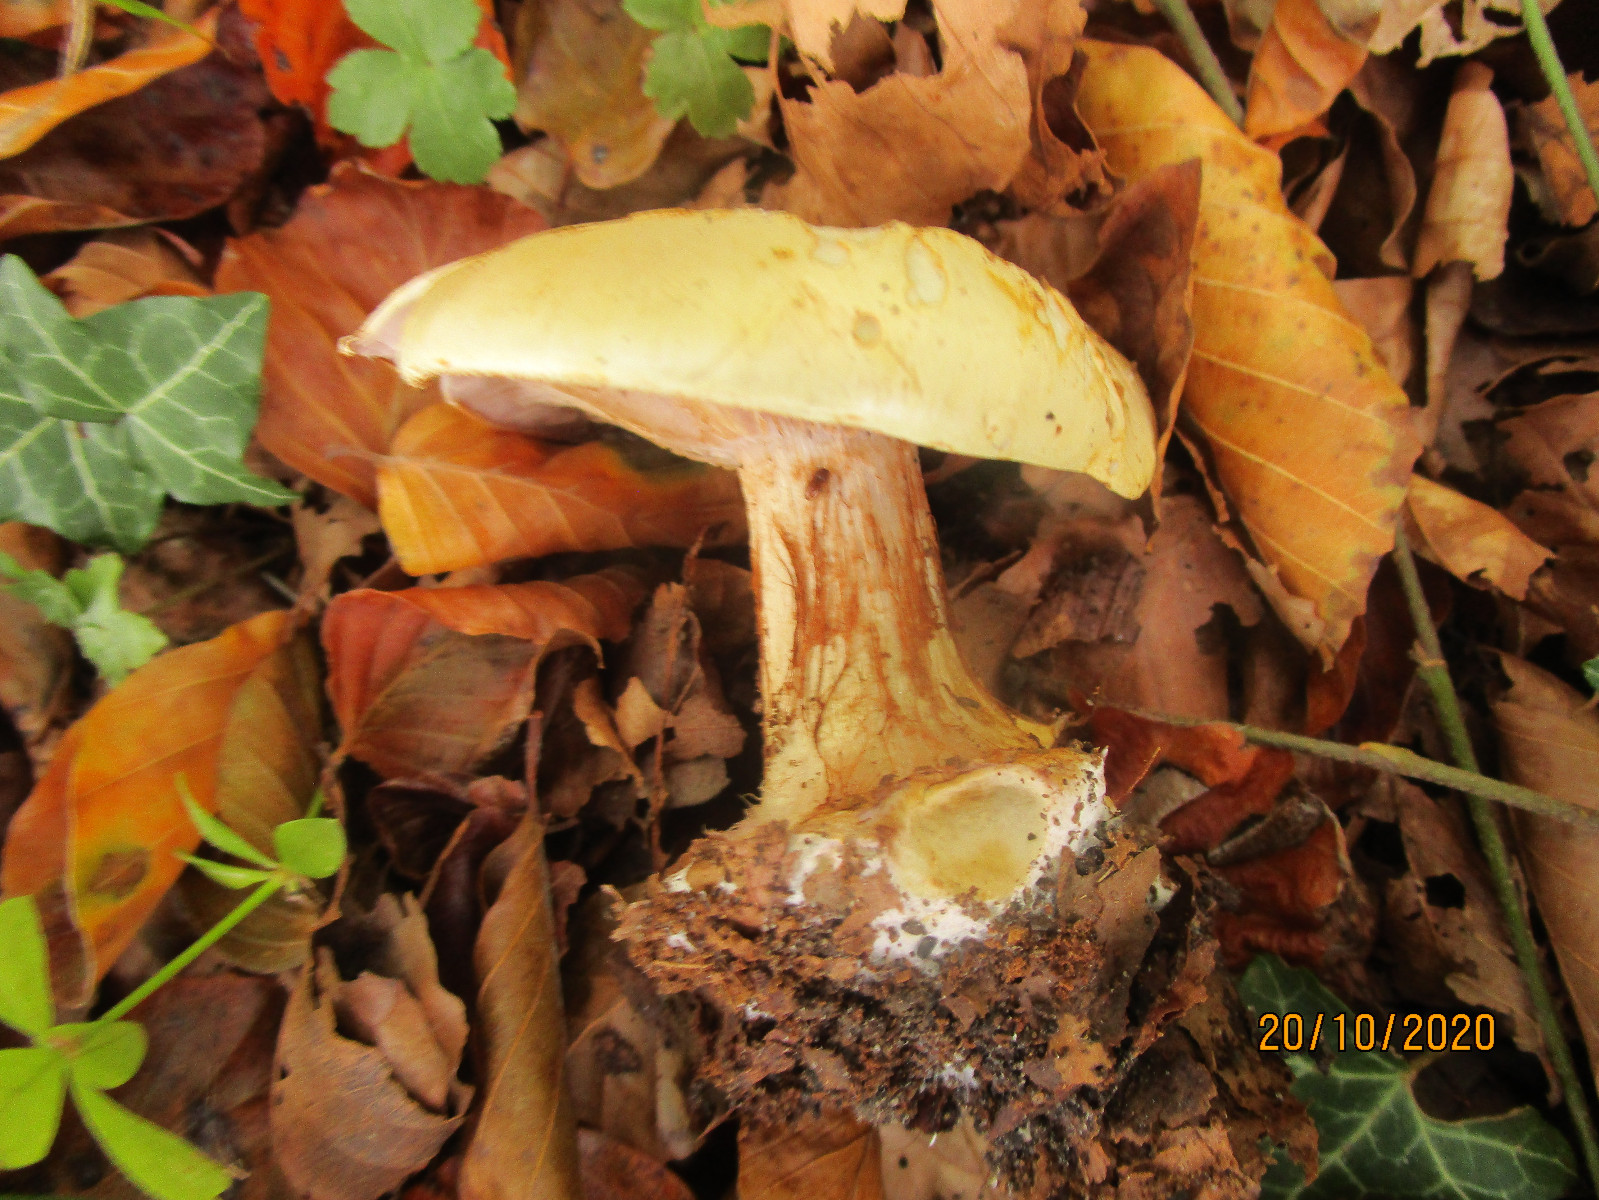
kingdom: Fungi
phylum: Basidiomycota
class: Agaricomycetes
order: Agaricales
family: Cortinariaceae
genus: Calonarius
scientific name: Calonarius
